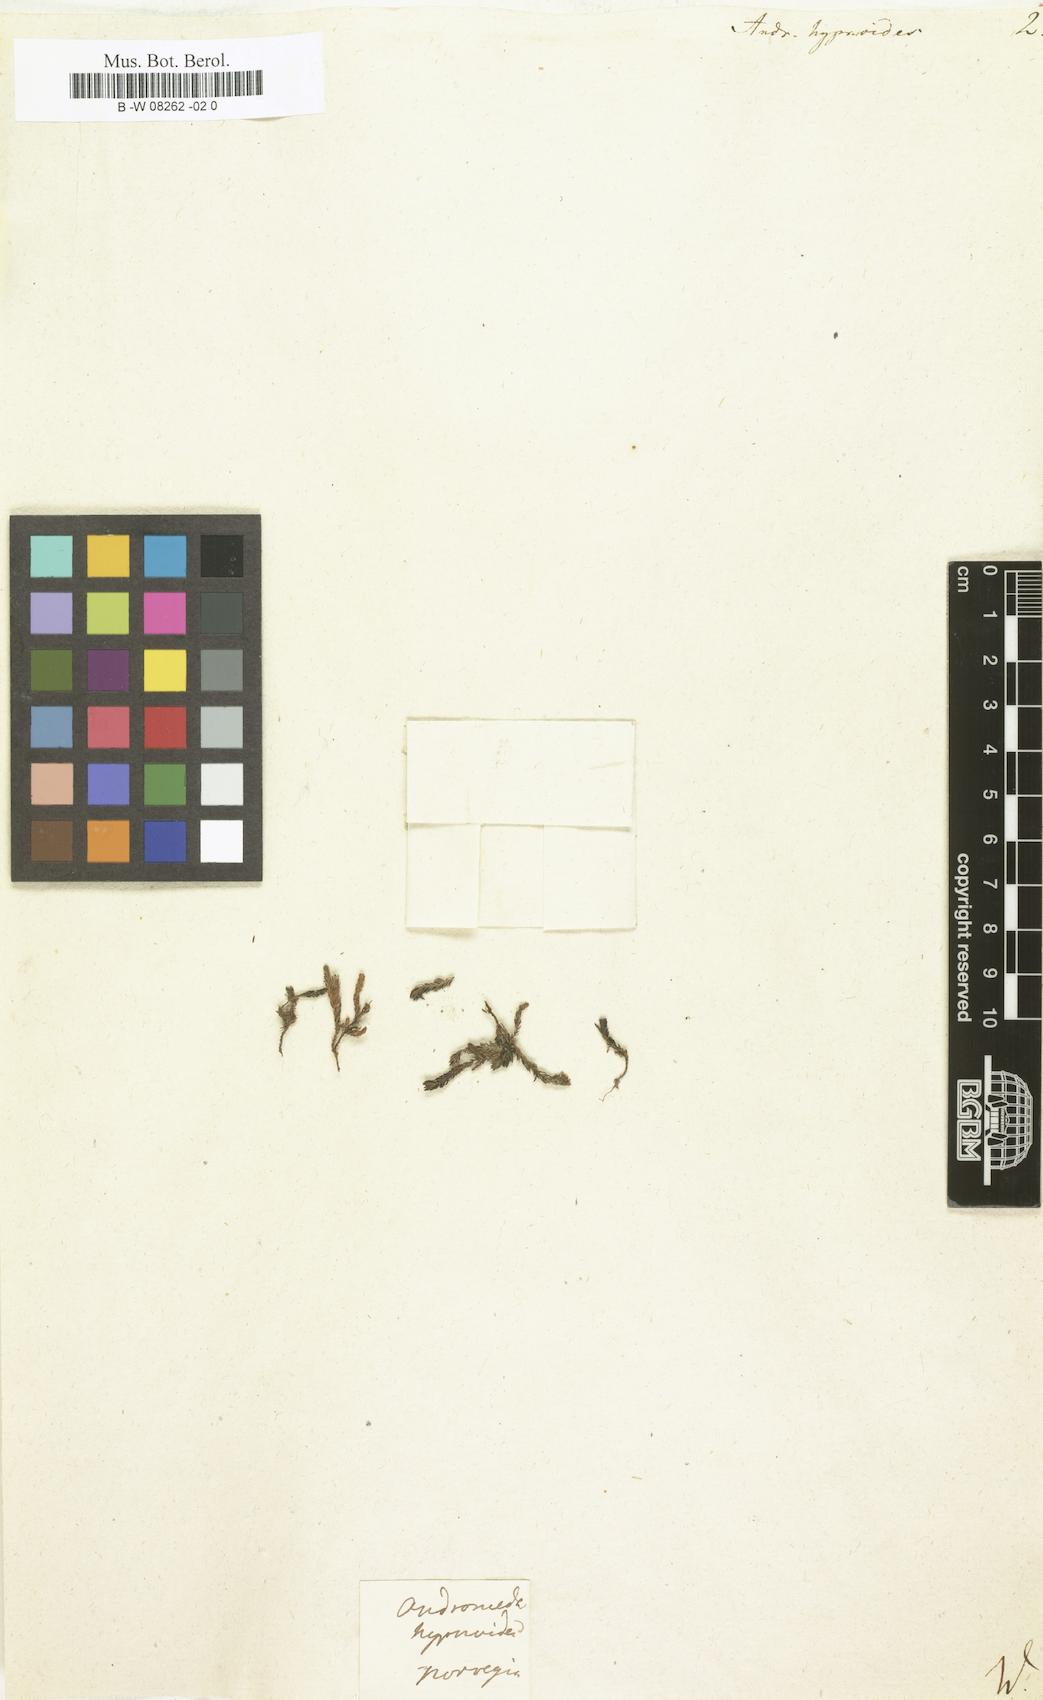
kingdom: Plantae
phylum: Tracheophyta
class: Magnoliopsida
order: Ericales
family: Ericaceae
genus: Harrimanella
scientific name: Harrimanella hypnoides
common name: Moss bell heather
